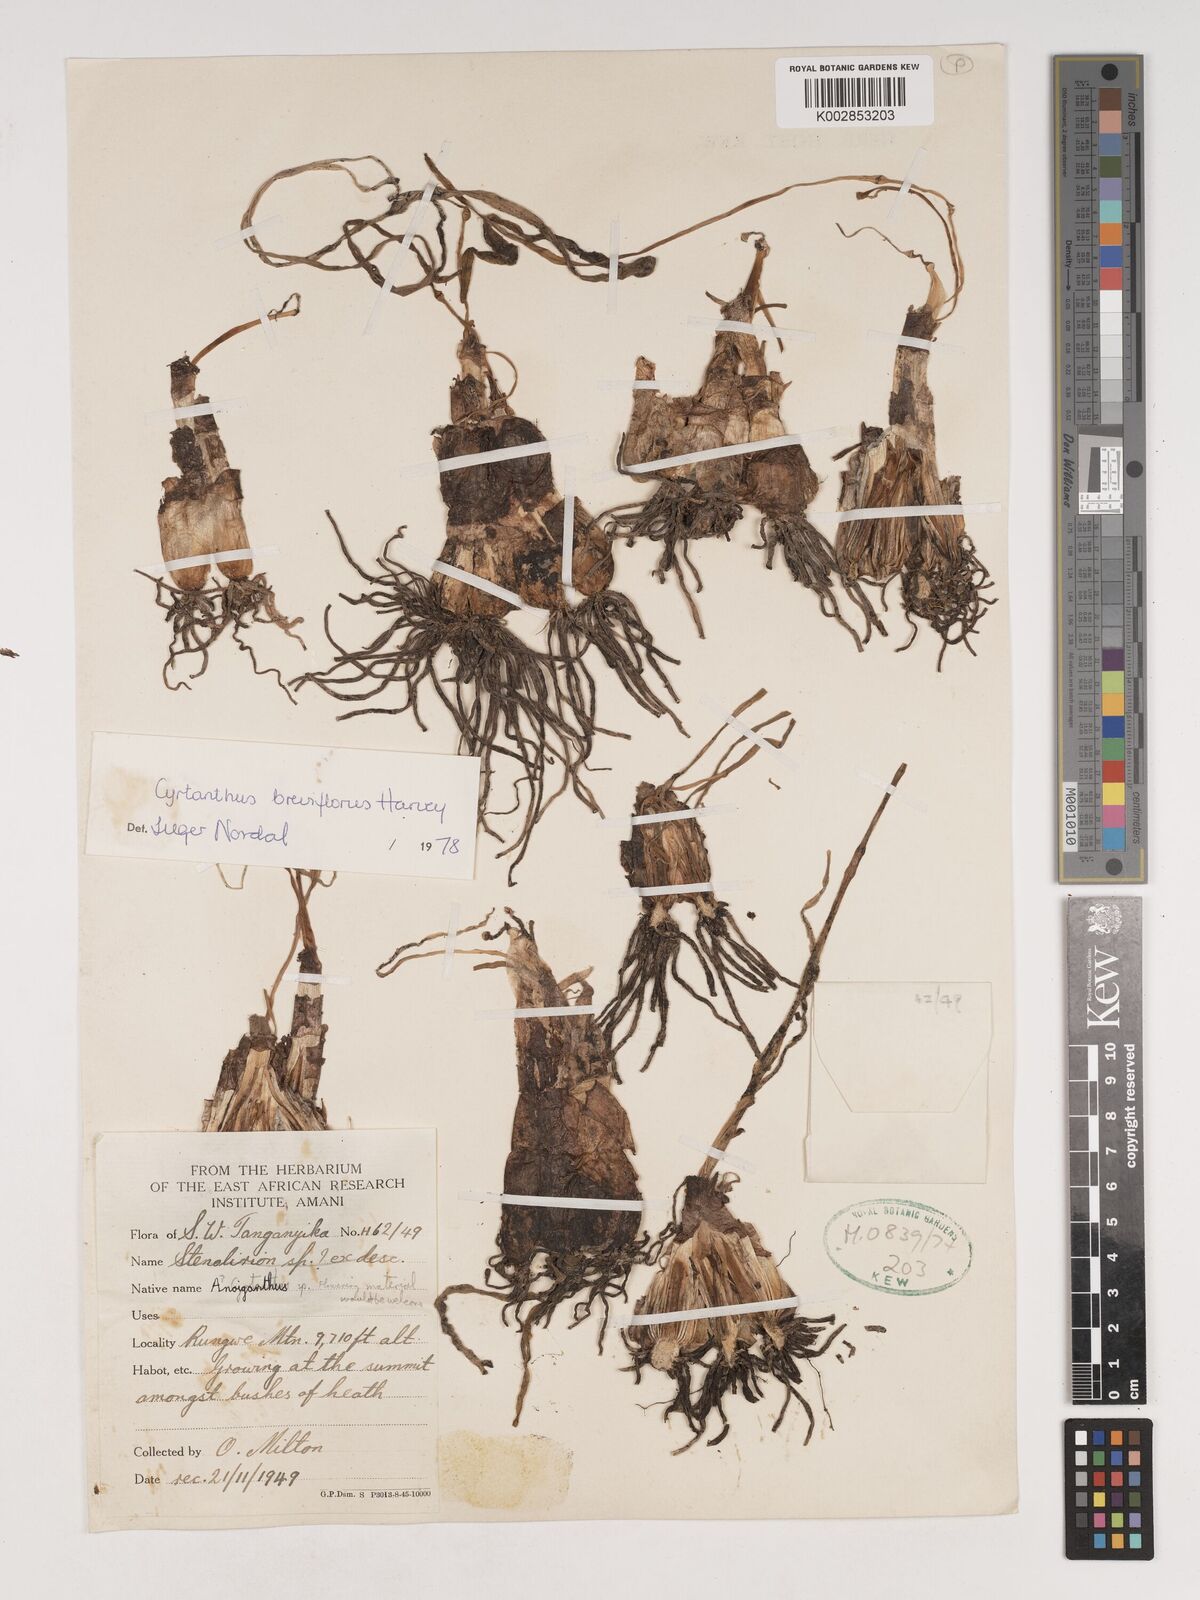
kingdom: Plantae
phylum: Tracheophyta
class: Liliopsida
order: Asparagales
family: Amaryllidaceae
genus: Cyrtanthus
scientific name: Cyrtanthus breviflorus
